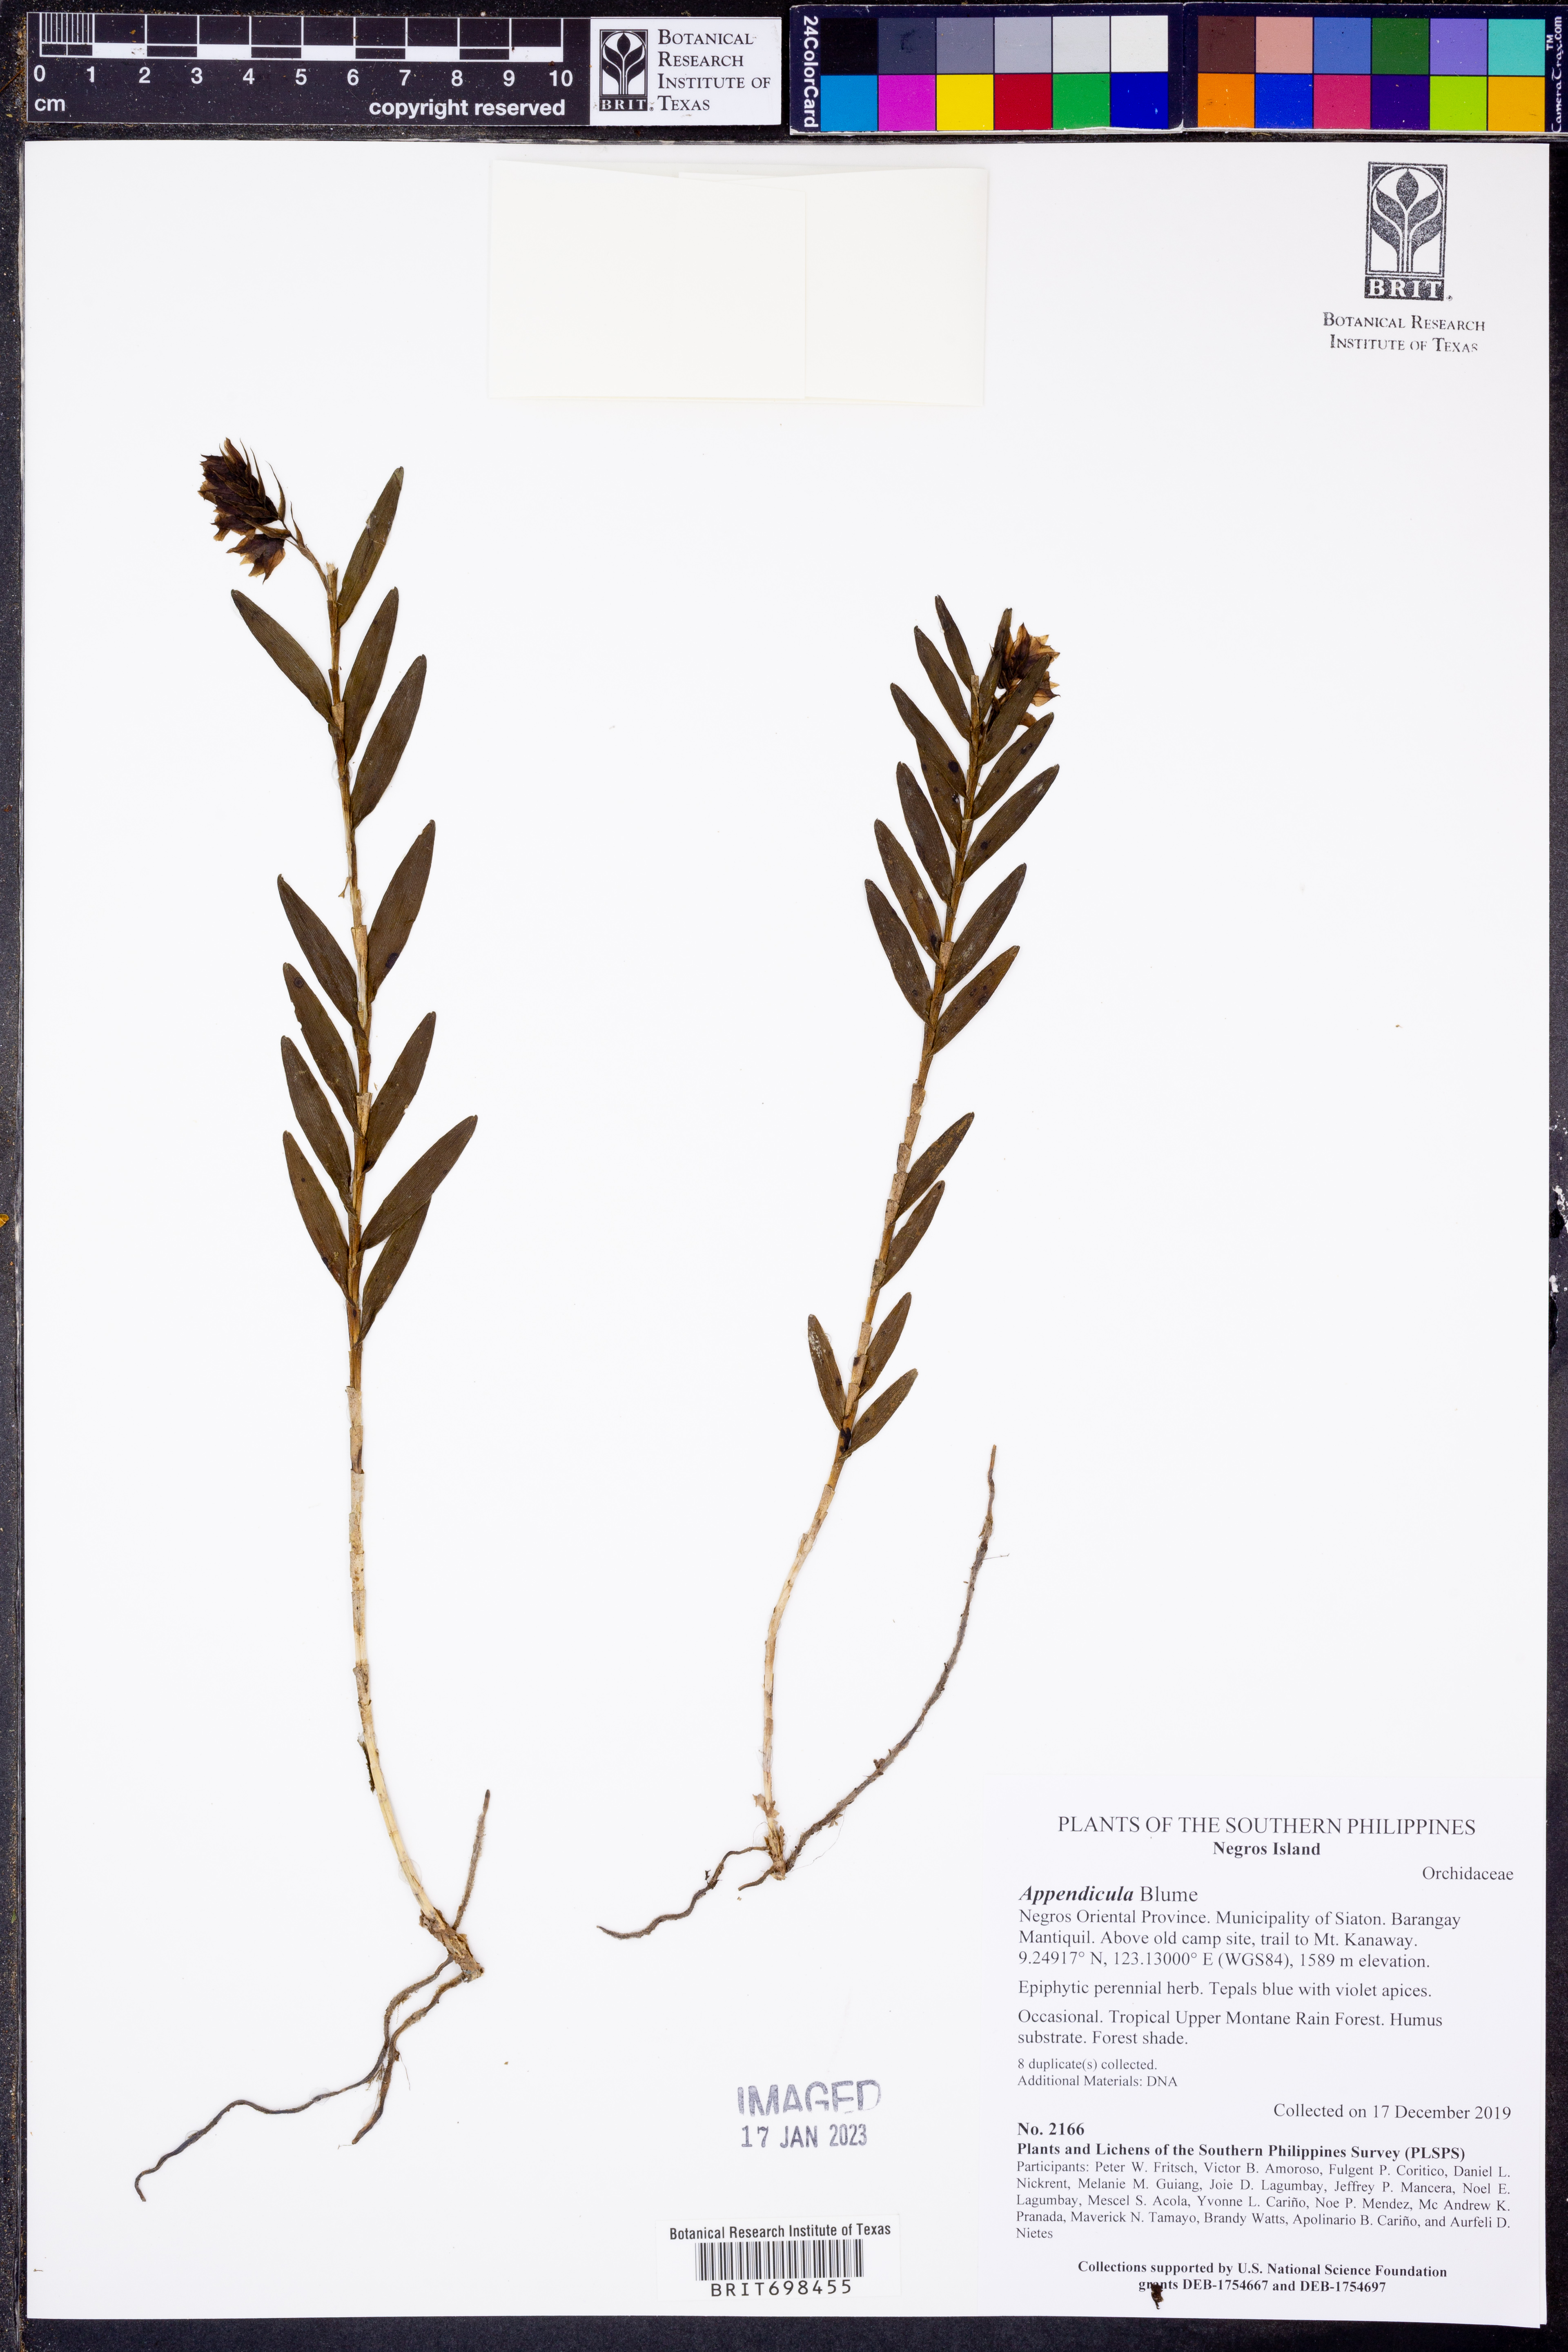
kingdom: Plantae
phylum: Tracheophyta
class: Liliopsida
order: Asparagales
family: Orchidaceae
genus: Appendicula
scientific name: Appendicula
